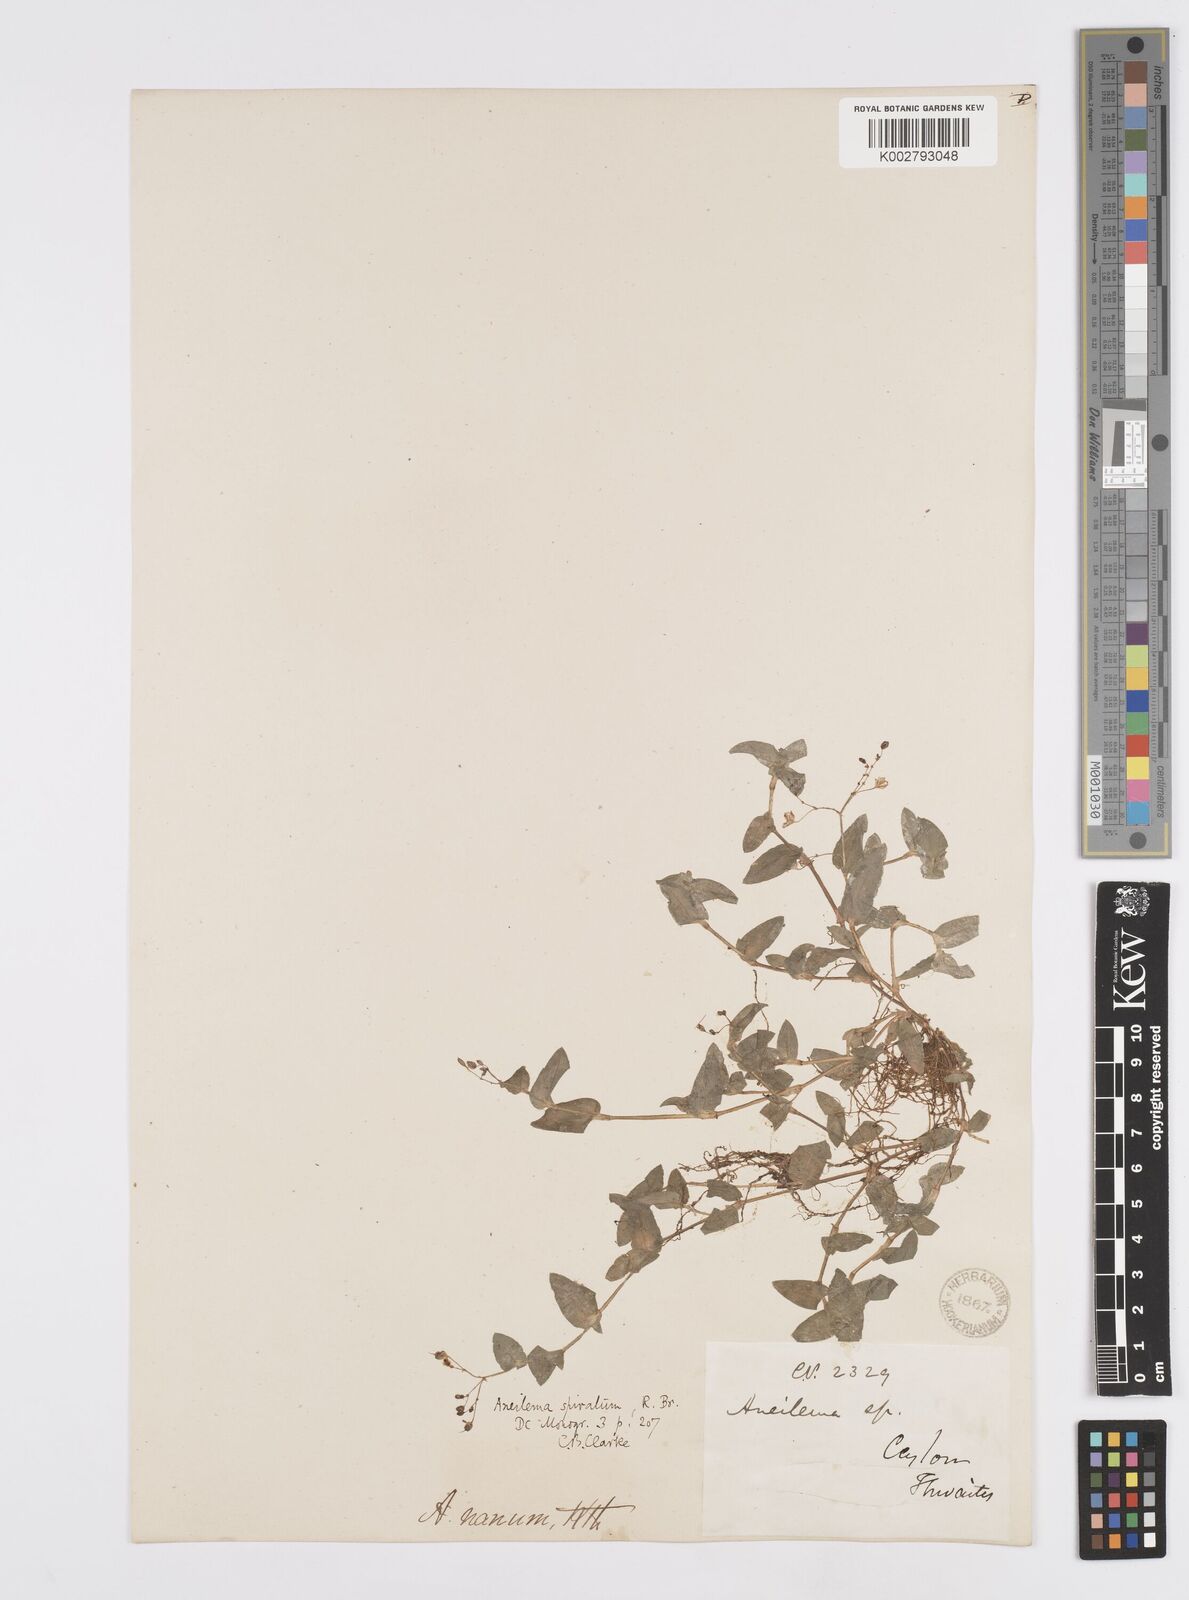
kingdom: Plantae
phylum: Tracheophyta
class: Liliopsida
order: Commelinales
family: Commelinaceae
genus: Murdannia
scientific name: Murdannia spirata
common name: Asiatic dewflower
